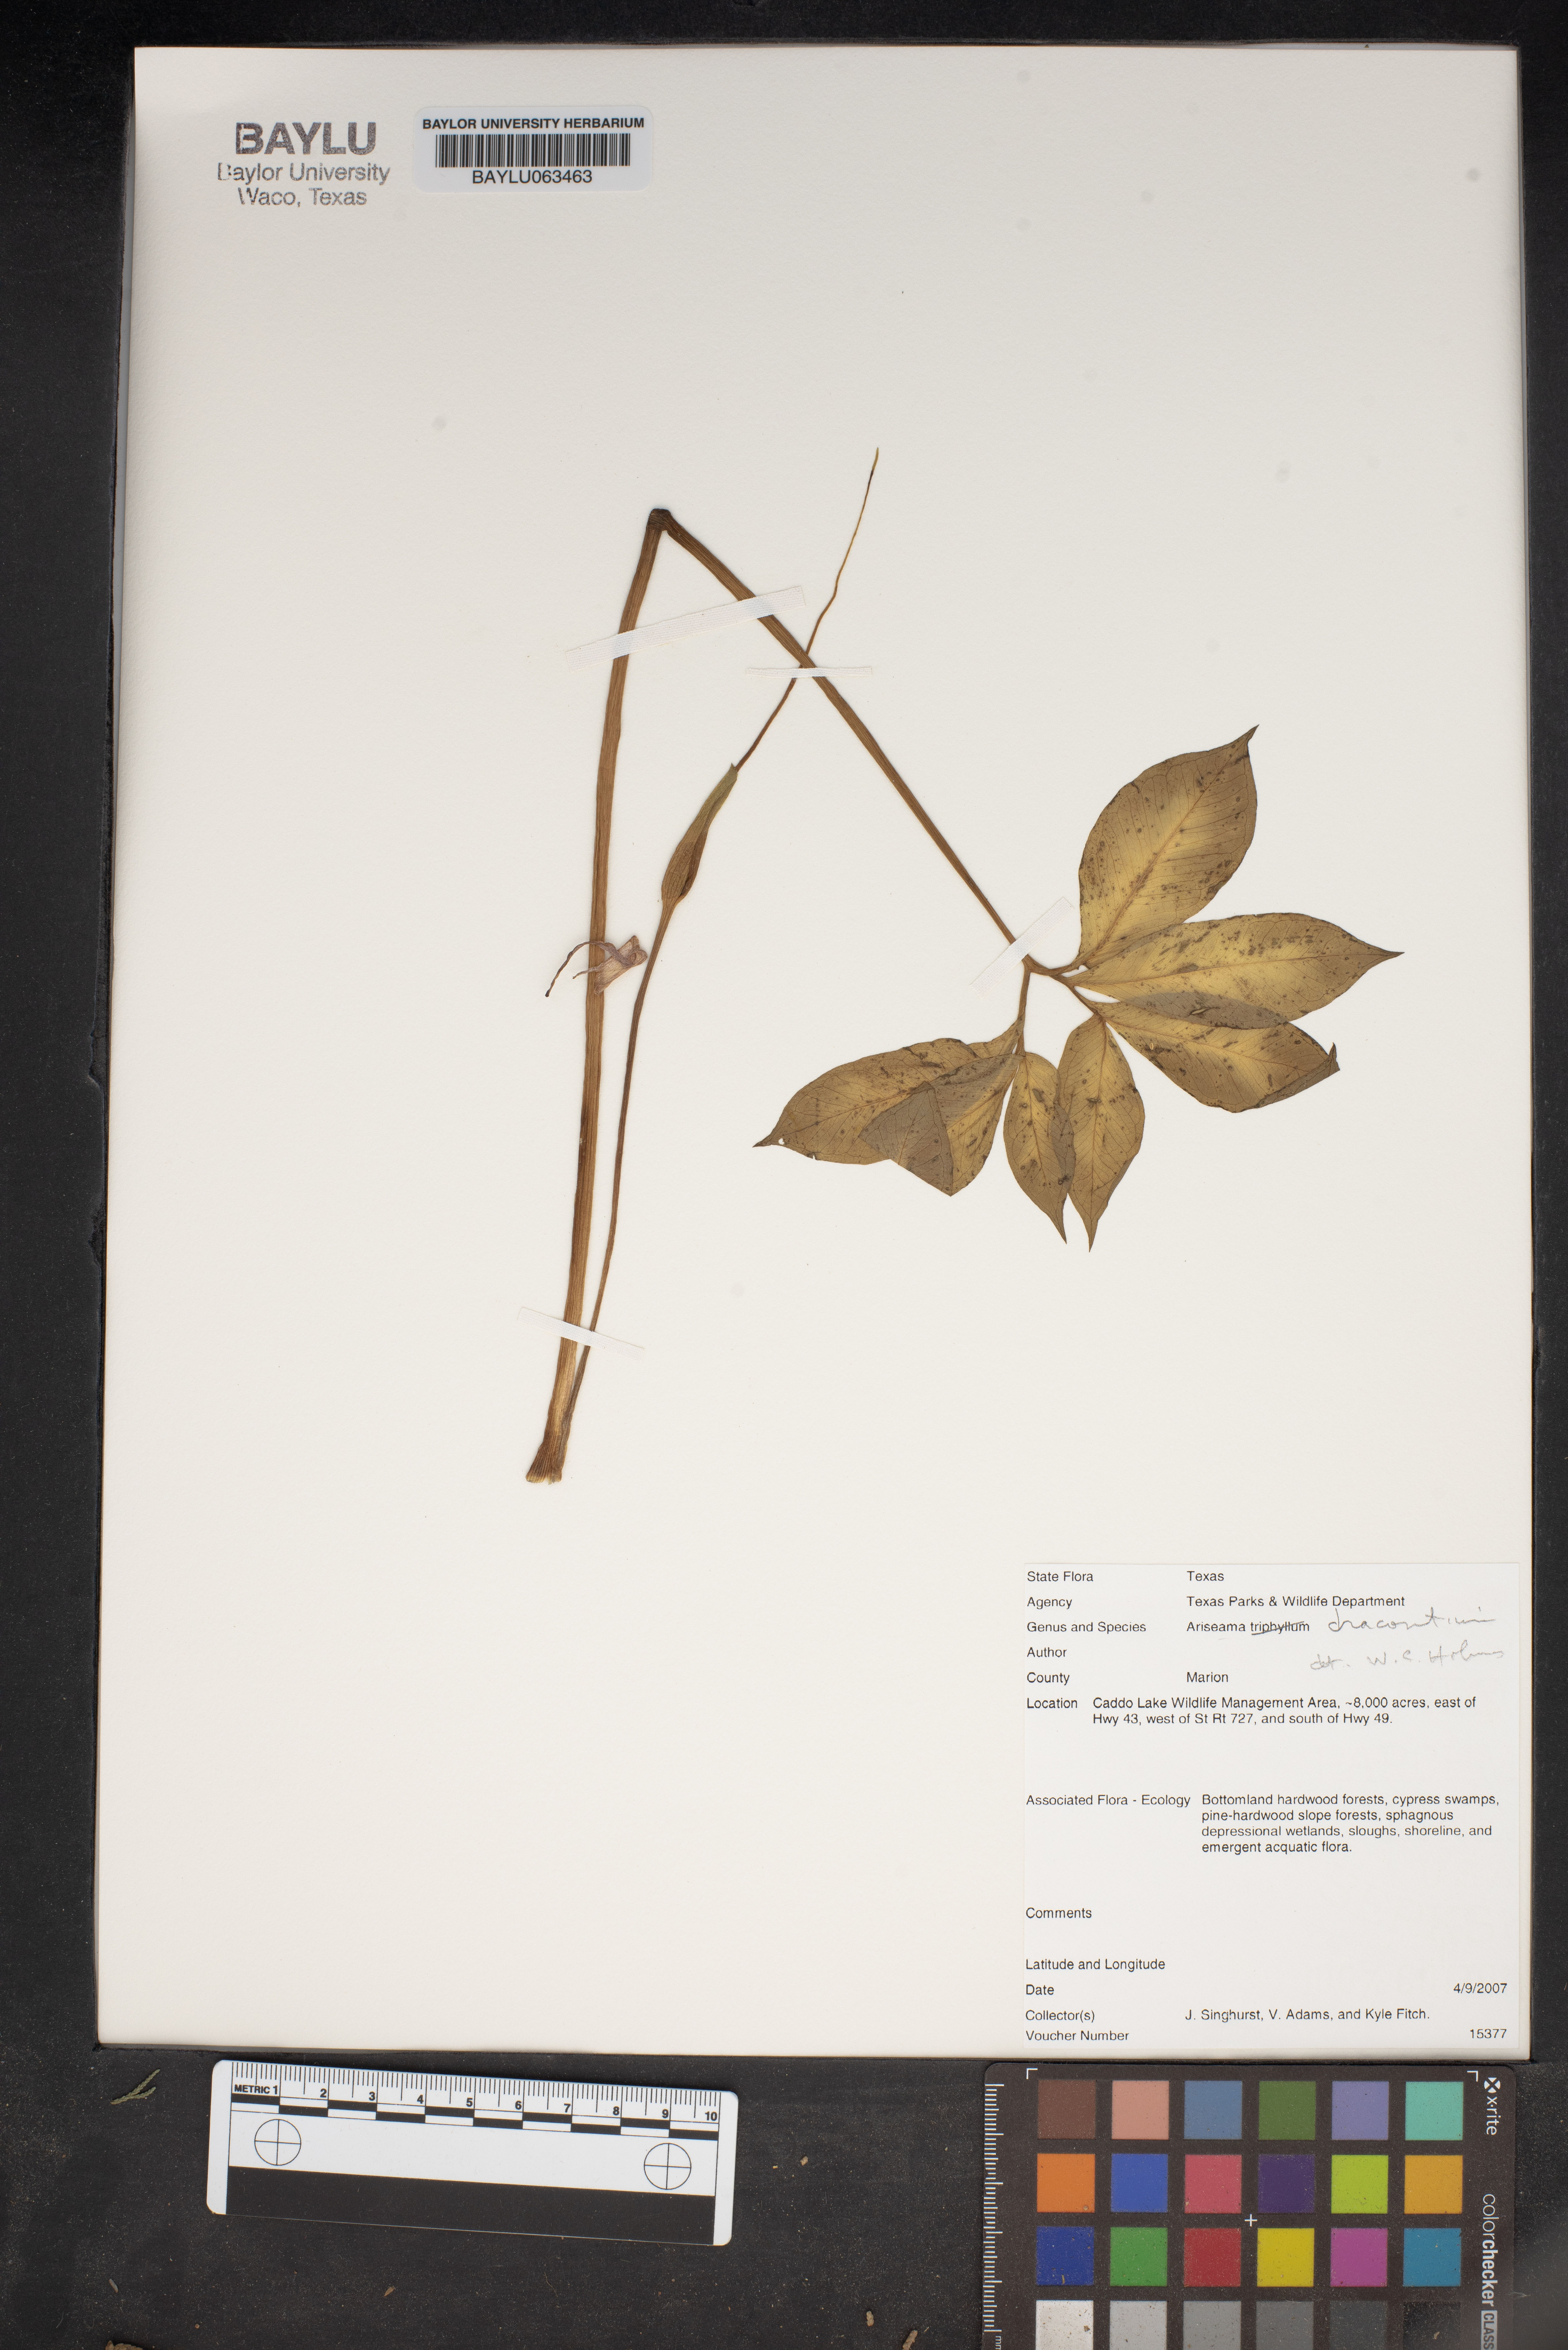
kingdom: Plantae
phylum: Tracheophyta
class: Liliopsida
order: Alismatales
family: Araceae
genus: Arisaema
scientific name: Arisaema dracontium
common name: Dragon-arum
